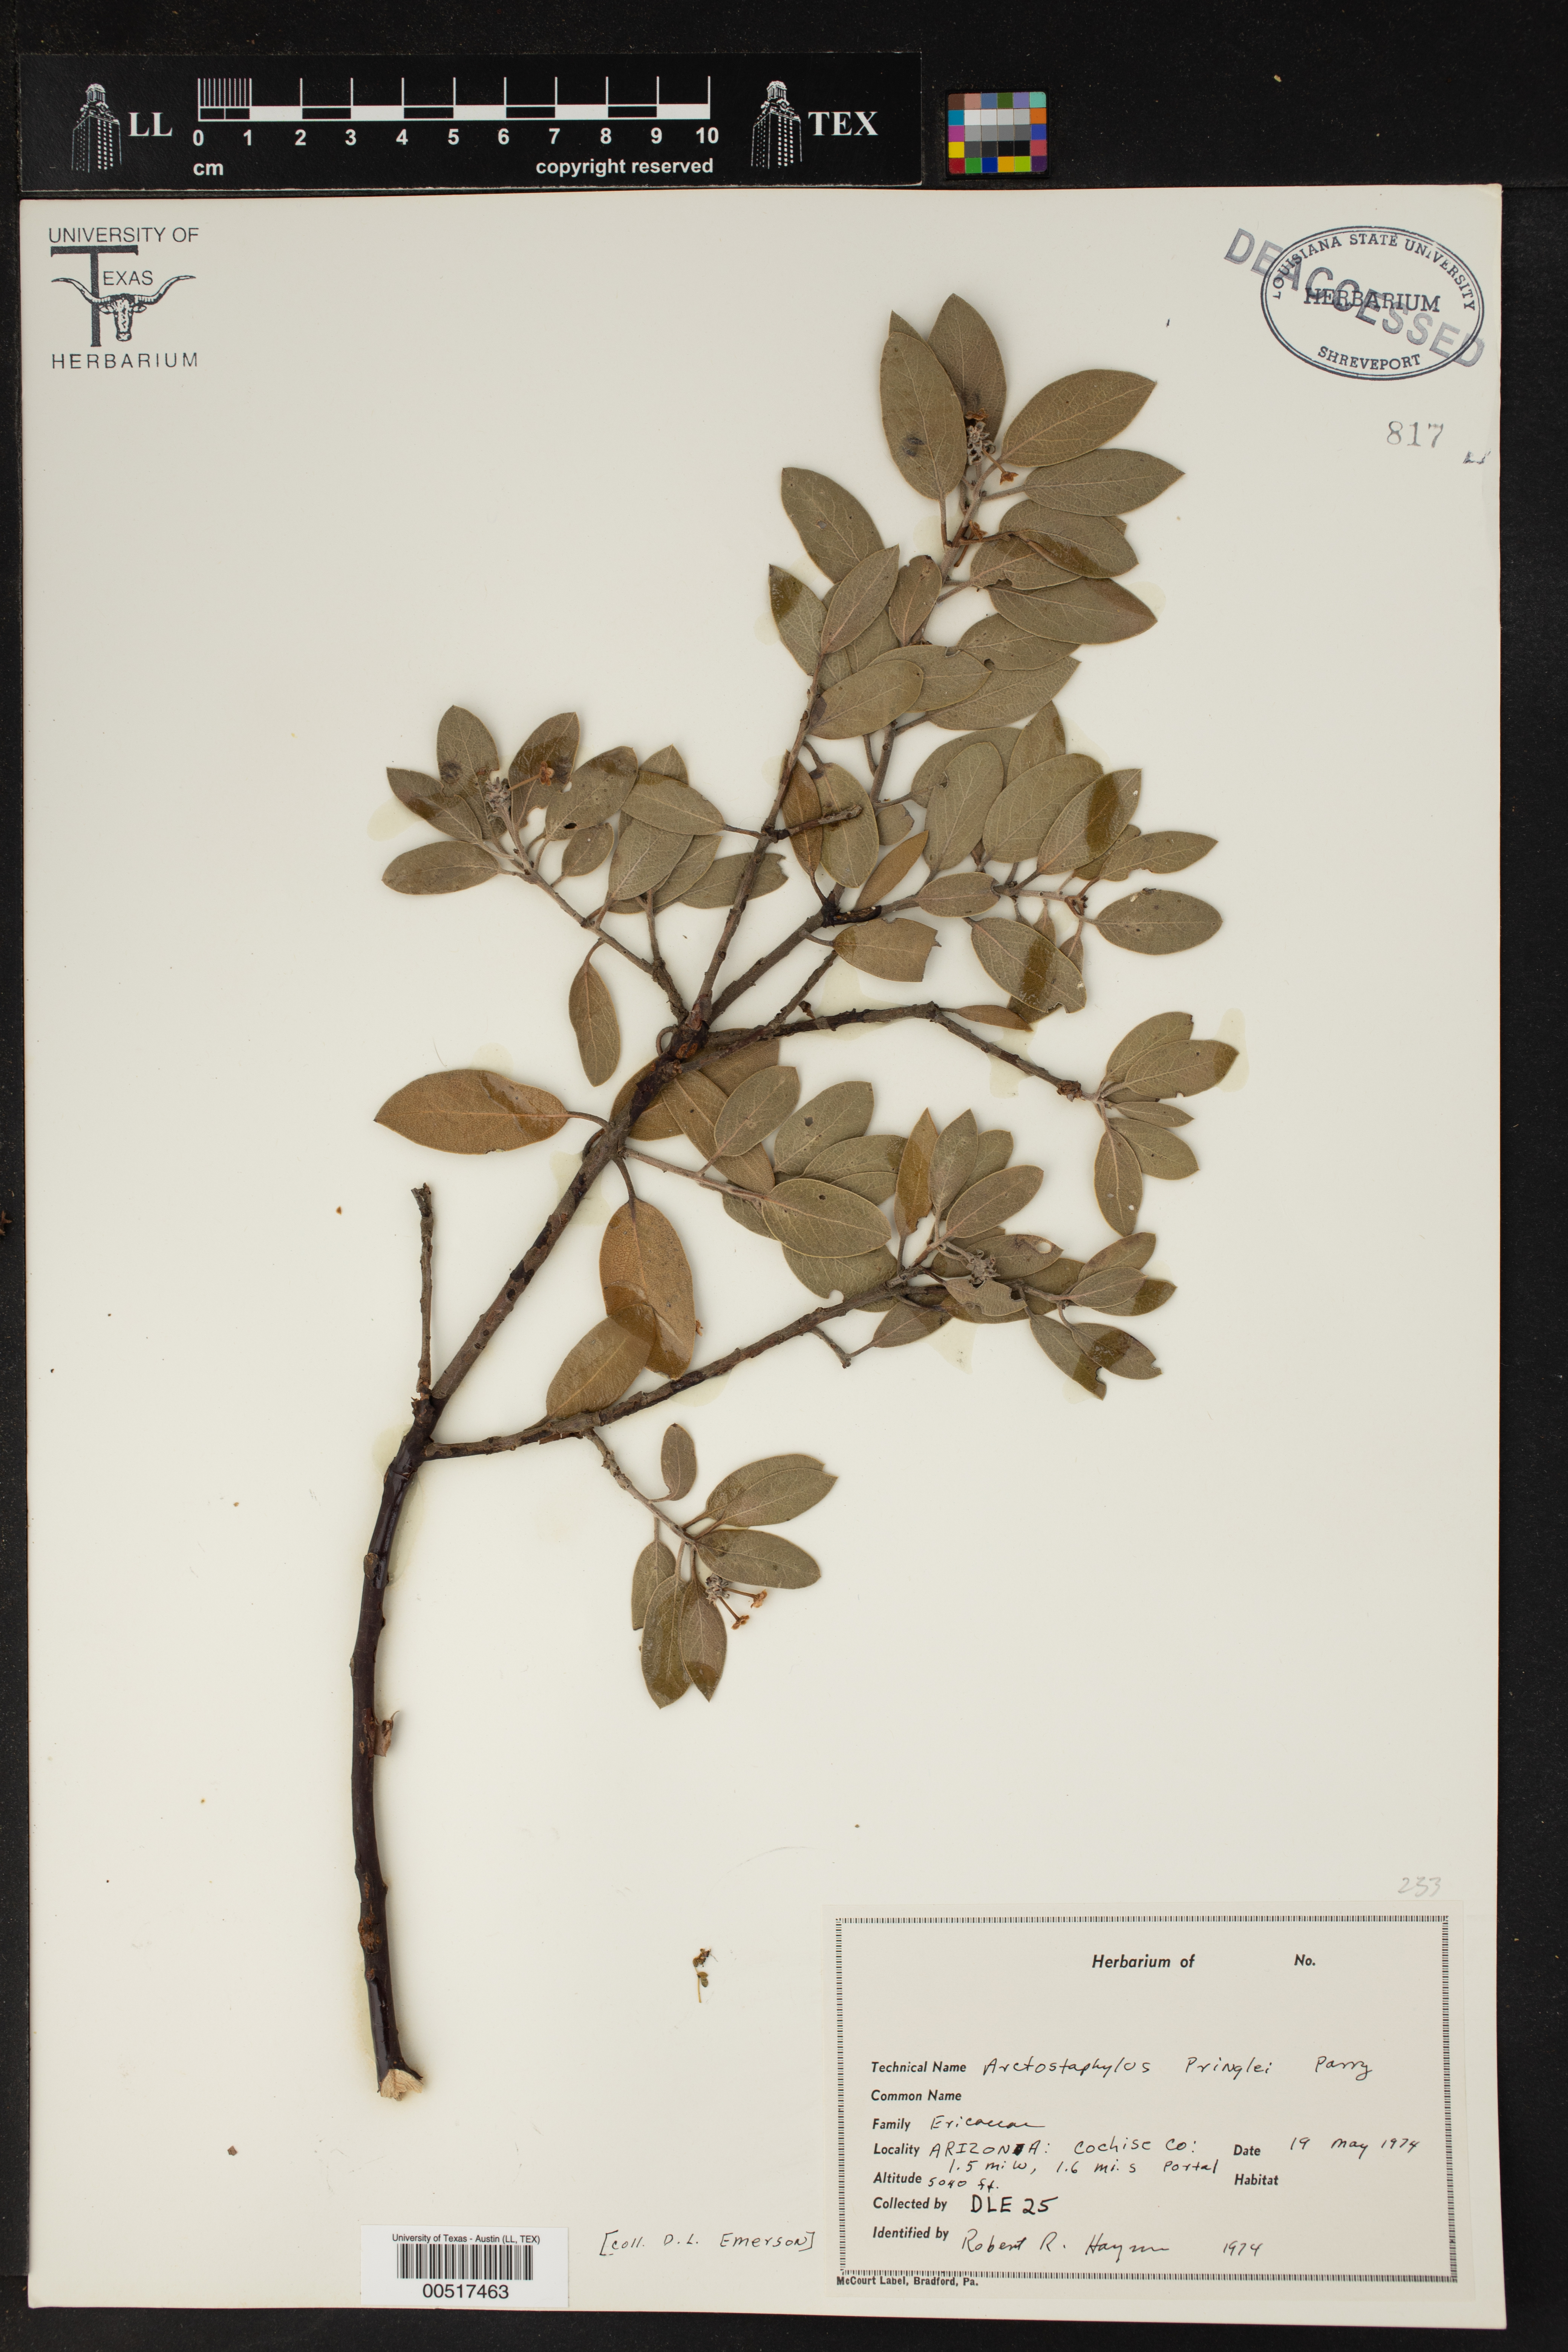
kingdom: Plantae
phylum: Tracheophyta
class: Magnoliopsida
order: Ericales
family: Ericaceae
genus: Arctostaphylos
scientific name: Arctostaphylos pringlei
